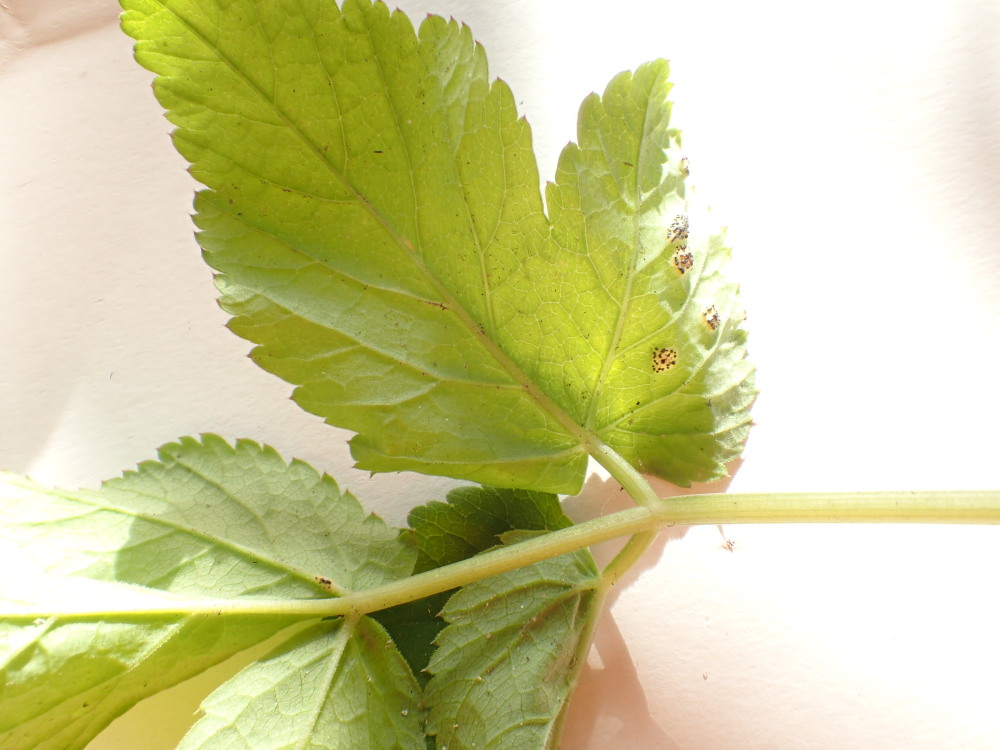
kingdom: Fungi
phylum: Basidiomycota
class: Pucciniomycetes
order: Pucciniales
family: Pucciniaceae
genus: Puccinia
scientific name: Puccinia
